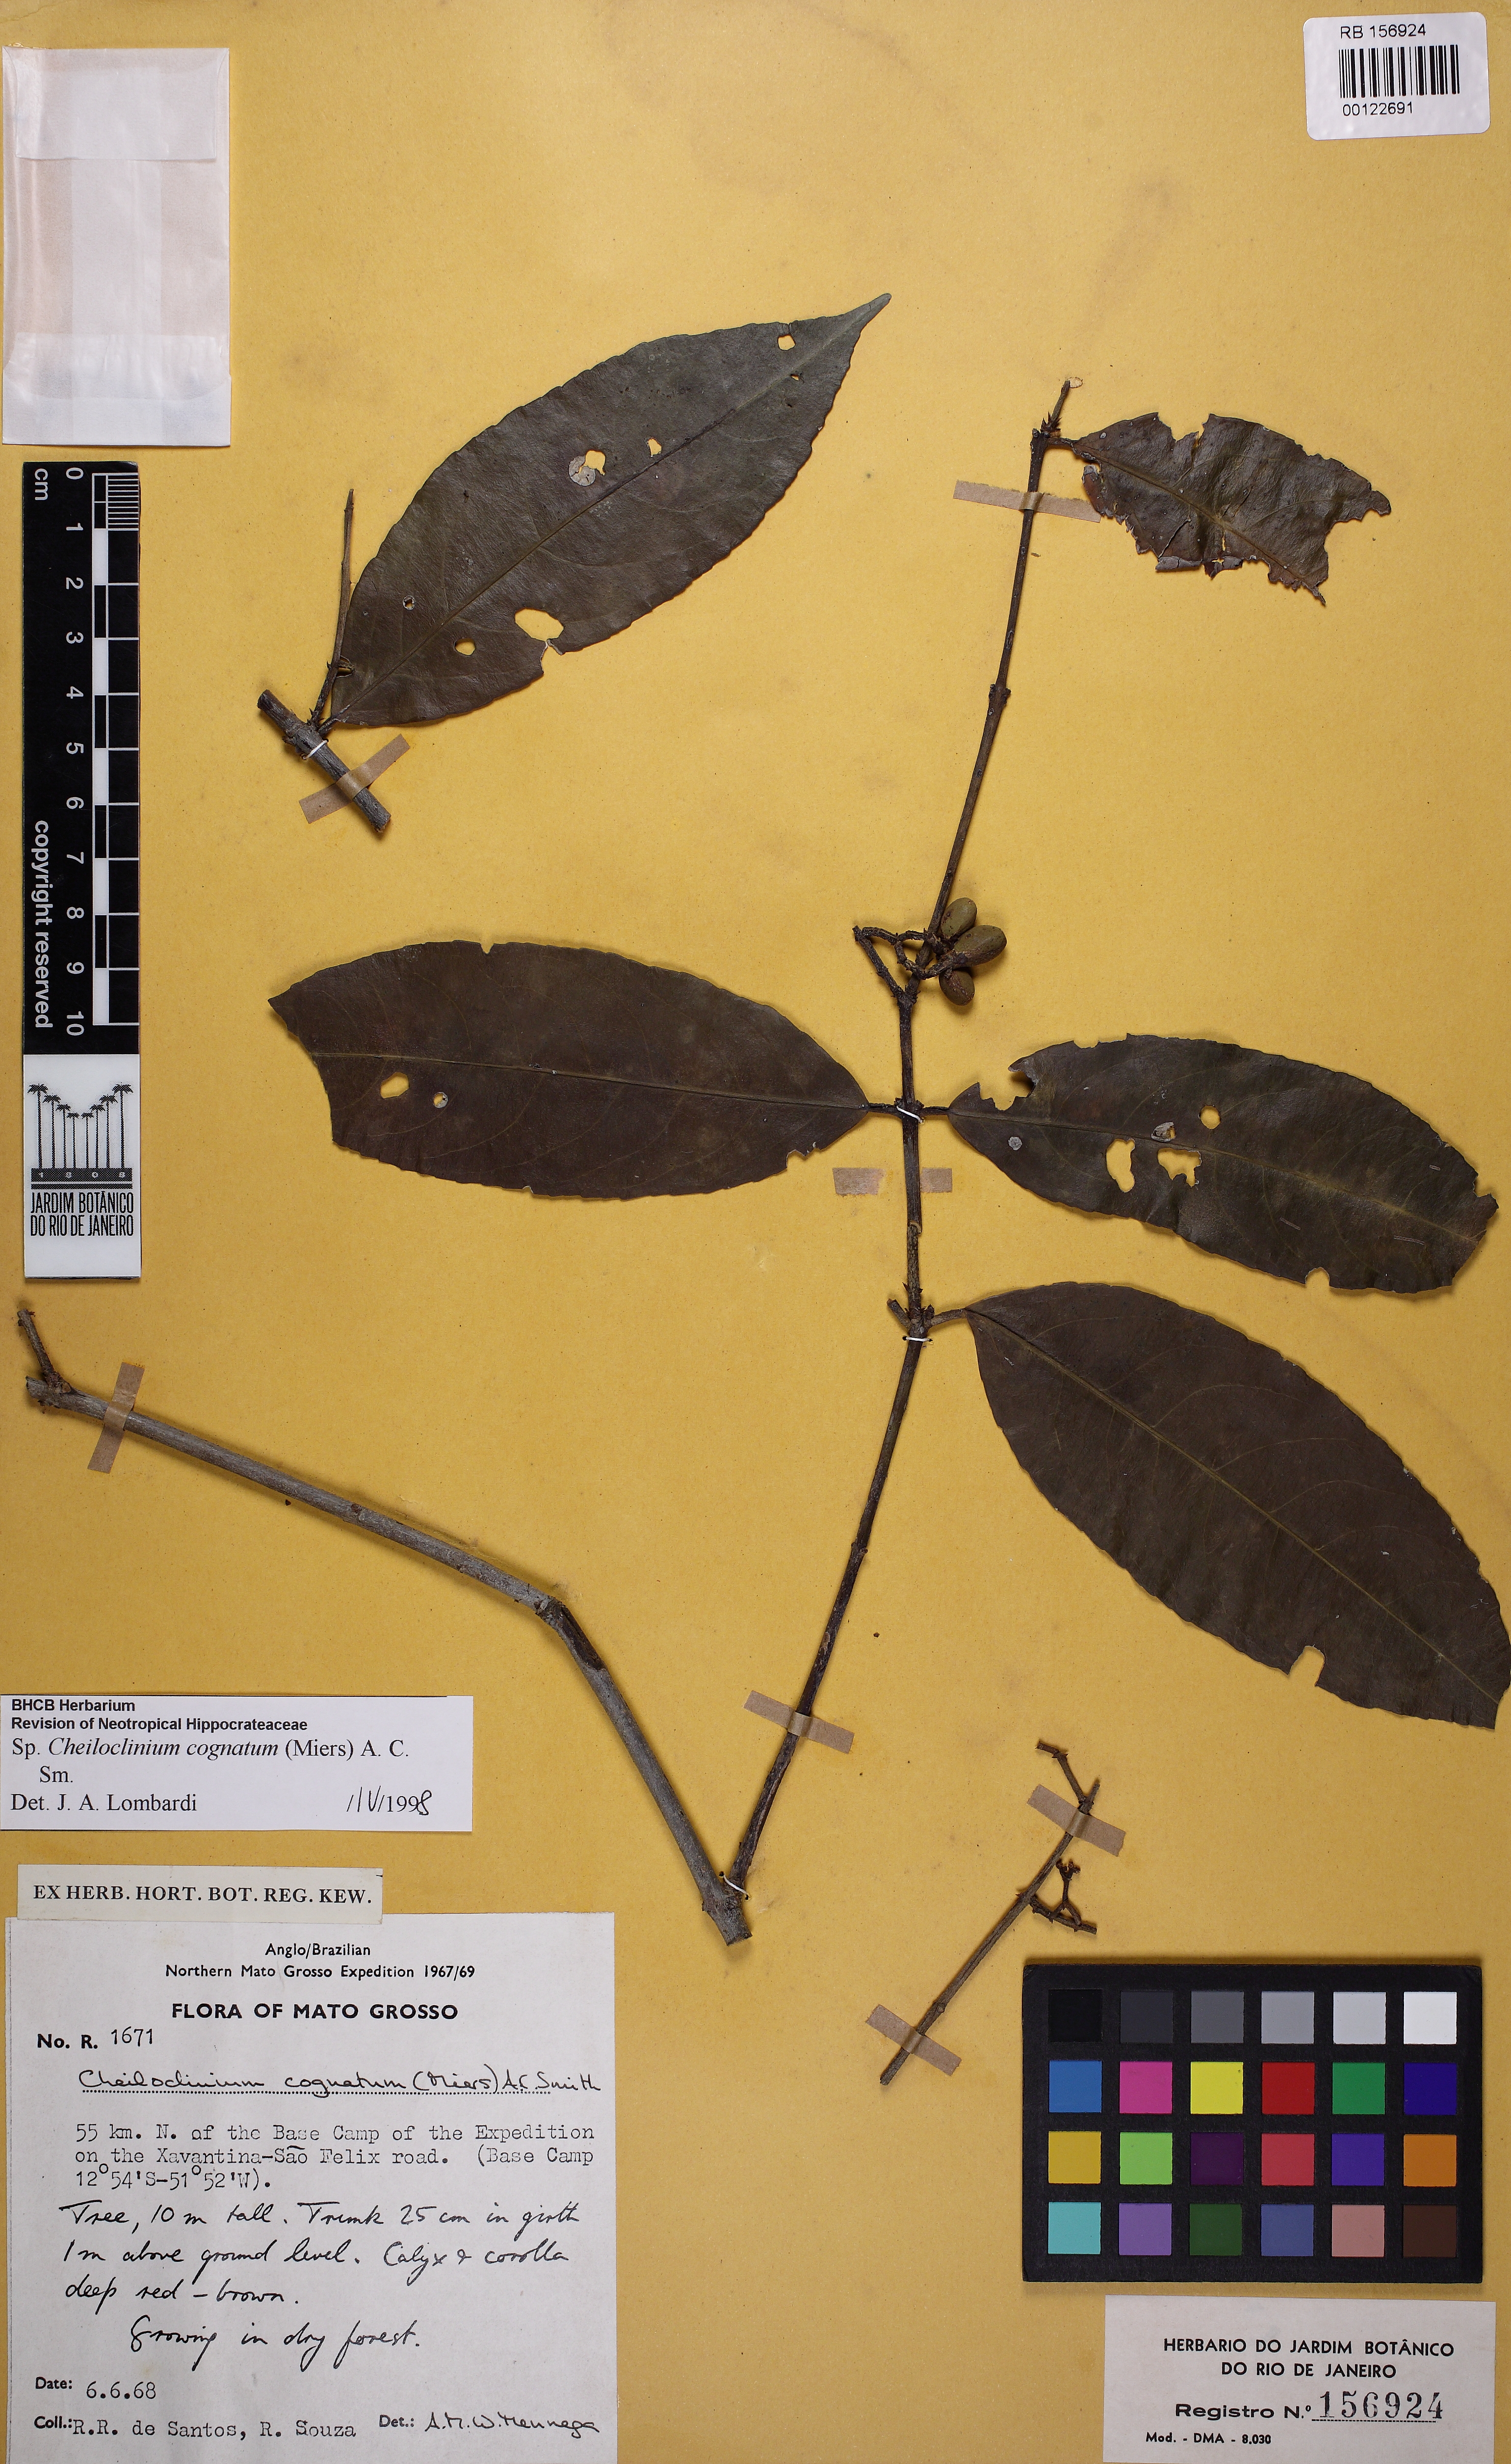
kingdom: Plantae
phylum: Tracheophyta
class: Magnoliopsida
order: Celastrales
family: Celastraceae
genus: Cheiloclinium
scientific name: Cheiloclinium cognatum
